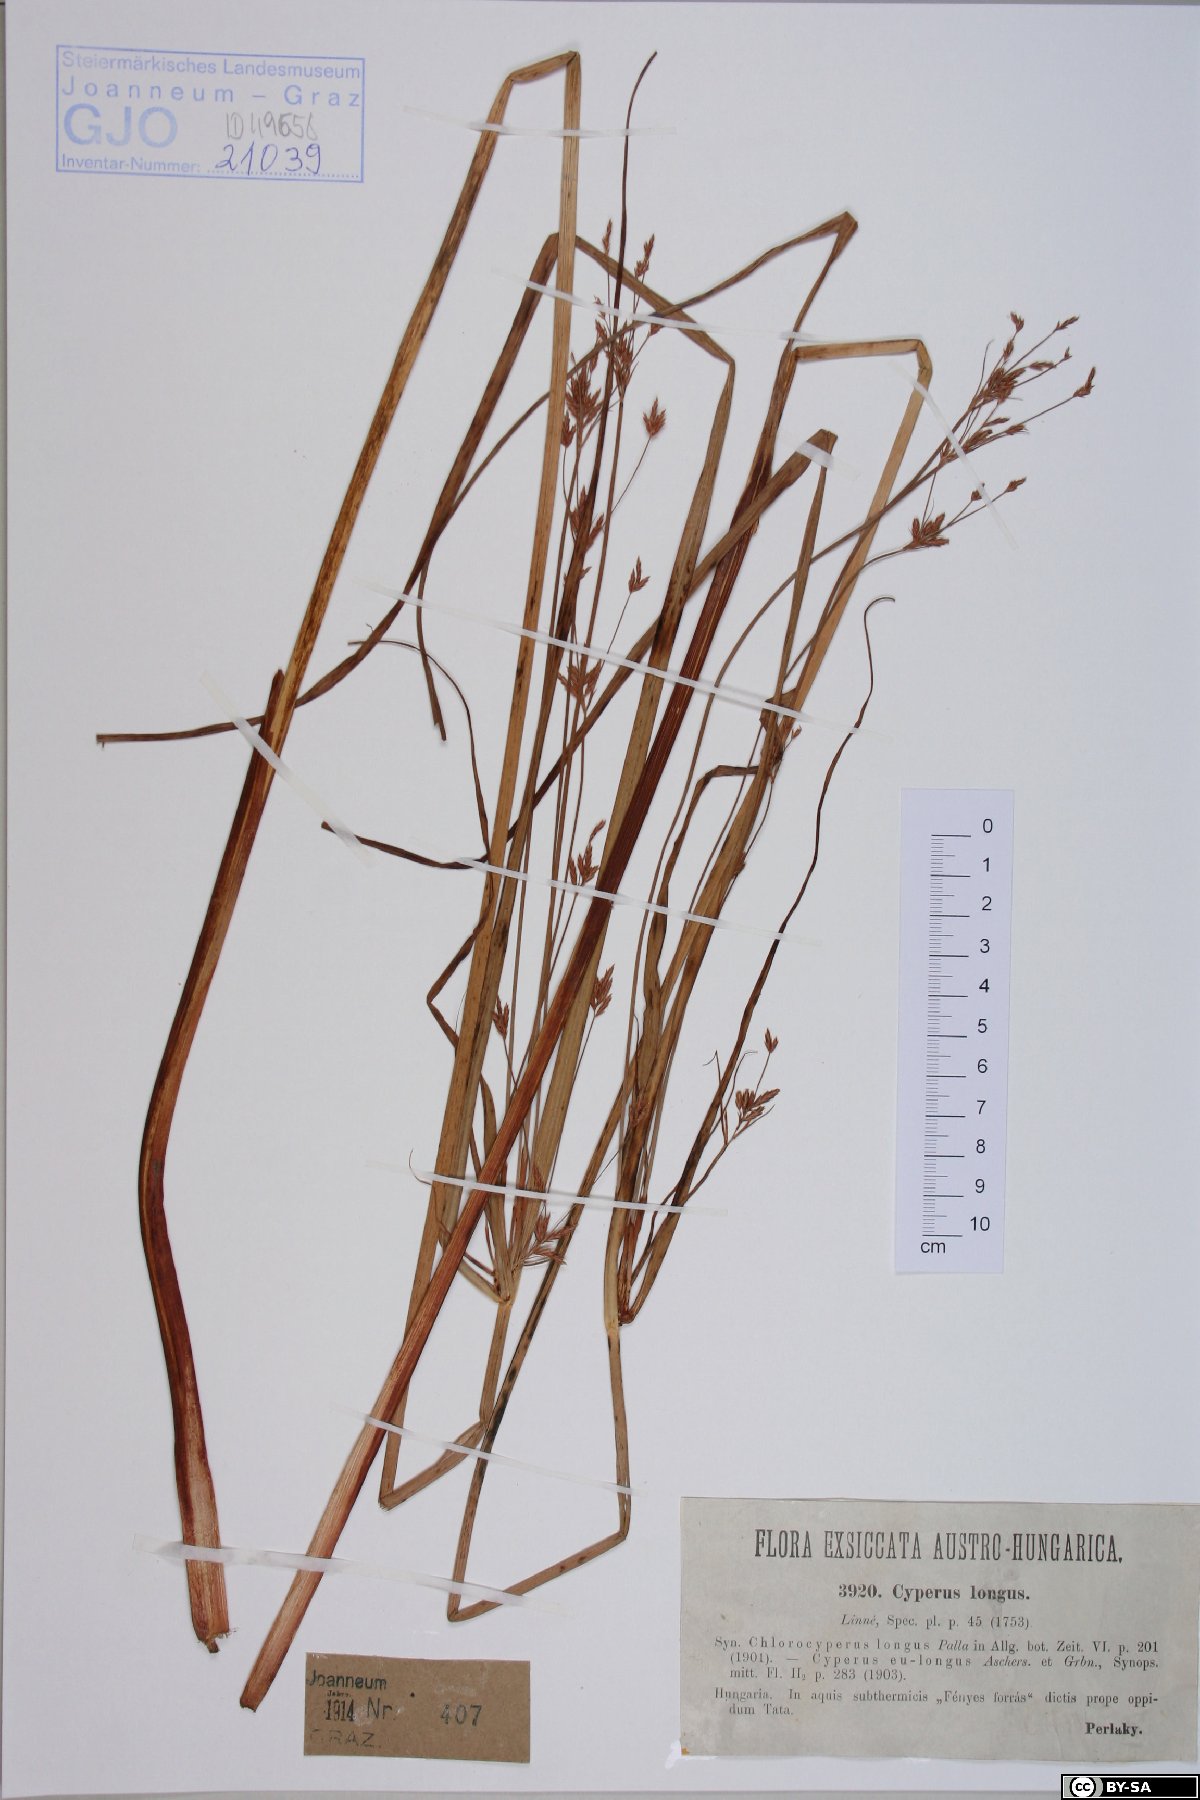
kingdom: Plantae
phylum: Bryophyta
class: Bryopsida
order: Hypnales
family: Brachytheciaceae
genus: Brachythecium
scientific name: Brachythecium salebrosum
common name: Smooth-stalk feather-moss
